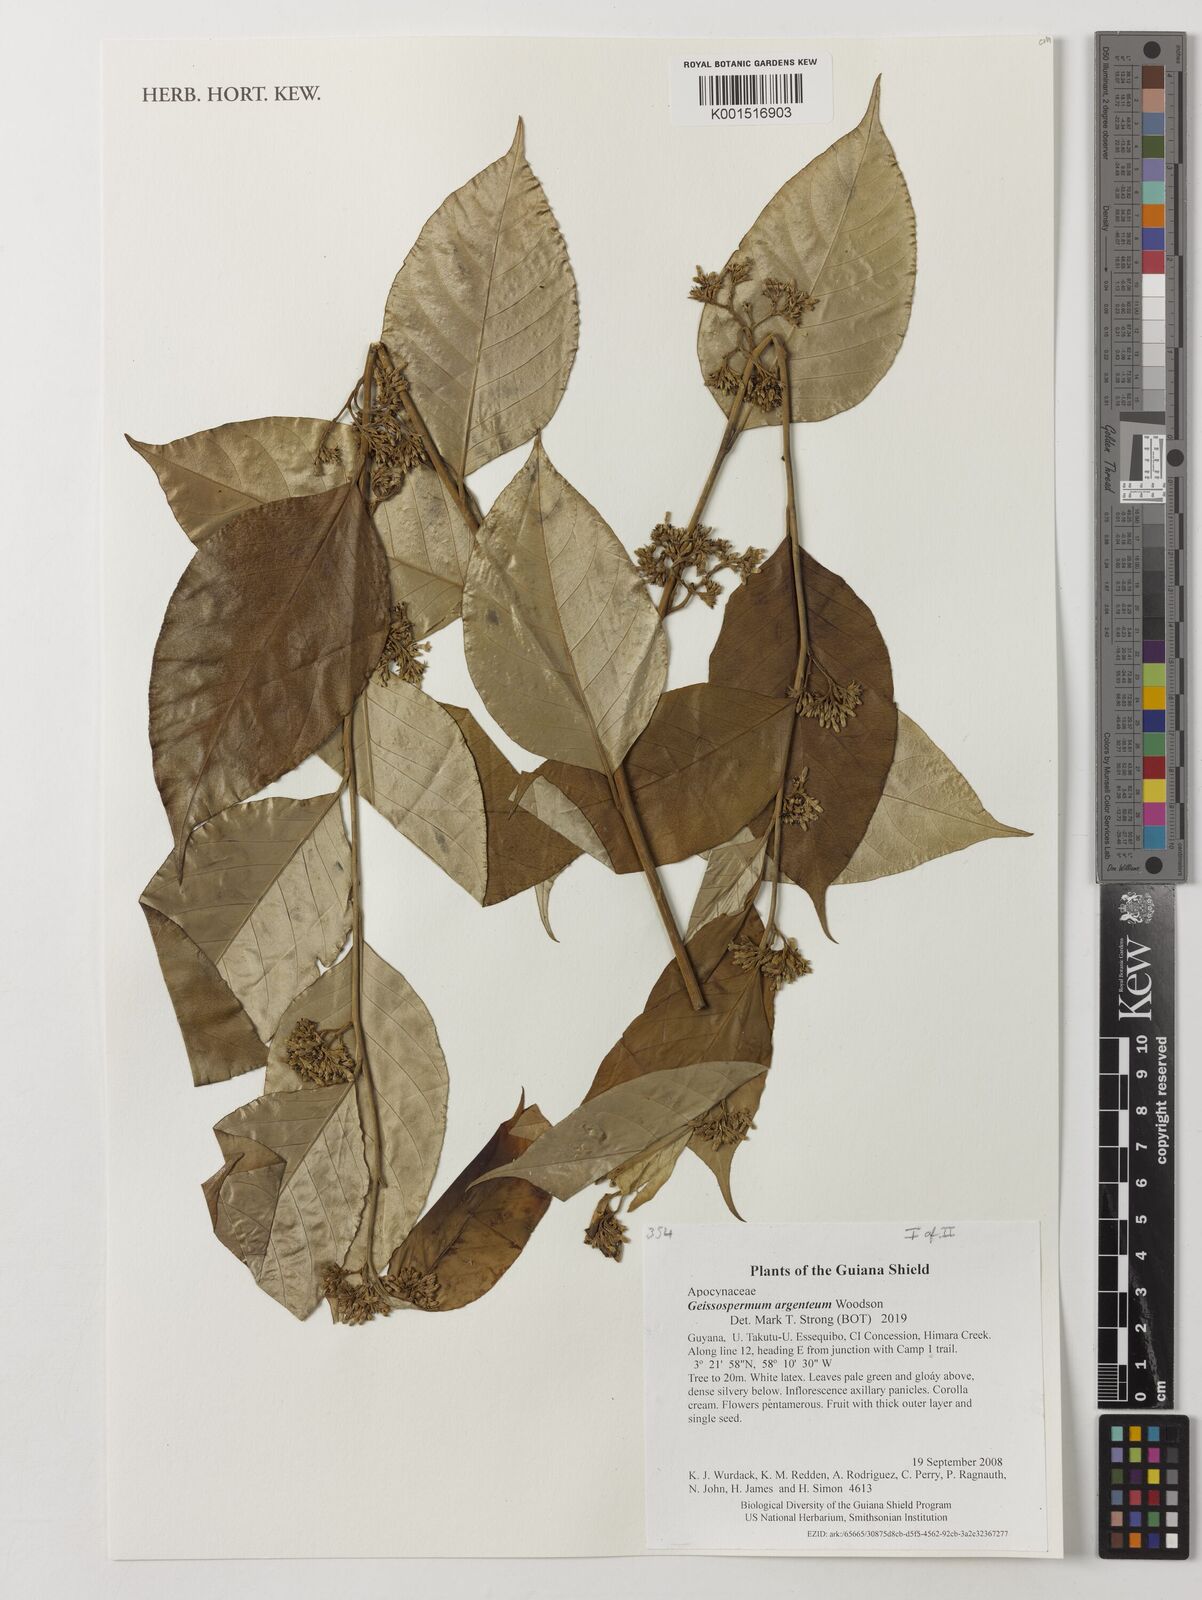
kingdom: Plantae
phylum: Tracheophyta
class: Magnoliopsida
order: Gentianales
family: Apocynaceae
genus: Geissospermum
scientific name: Geissospermum argenteum
